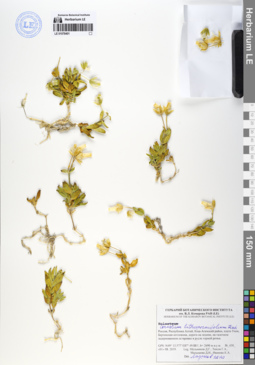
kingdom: Plantae
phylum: Tracheophyta
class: Magnoliopsida
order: Caryophyllales
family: Caryophyllaceae
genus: Cerastium
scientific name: Cerastium lithospermifolium
